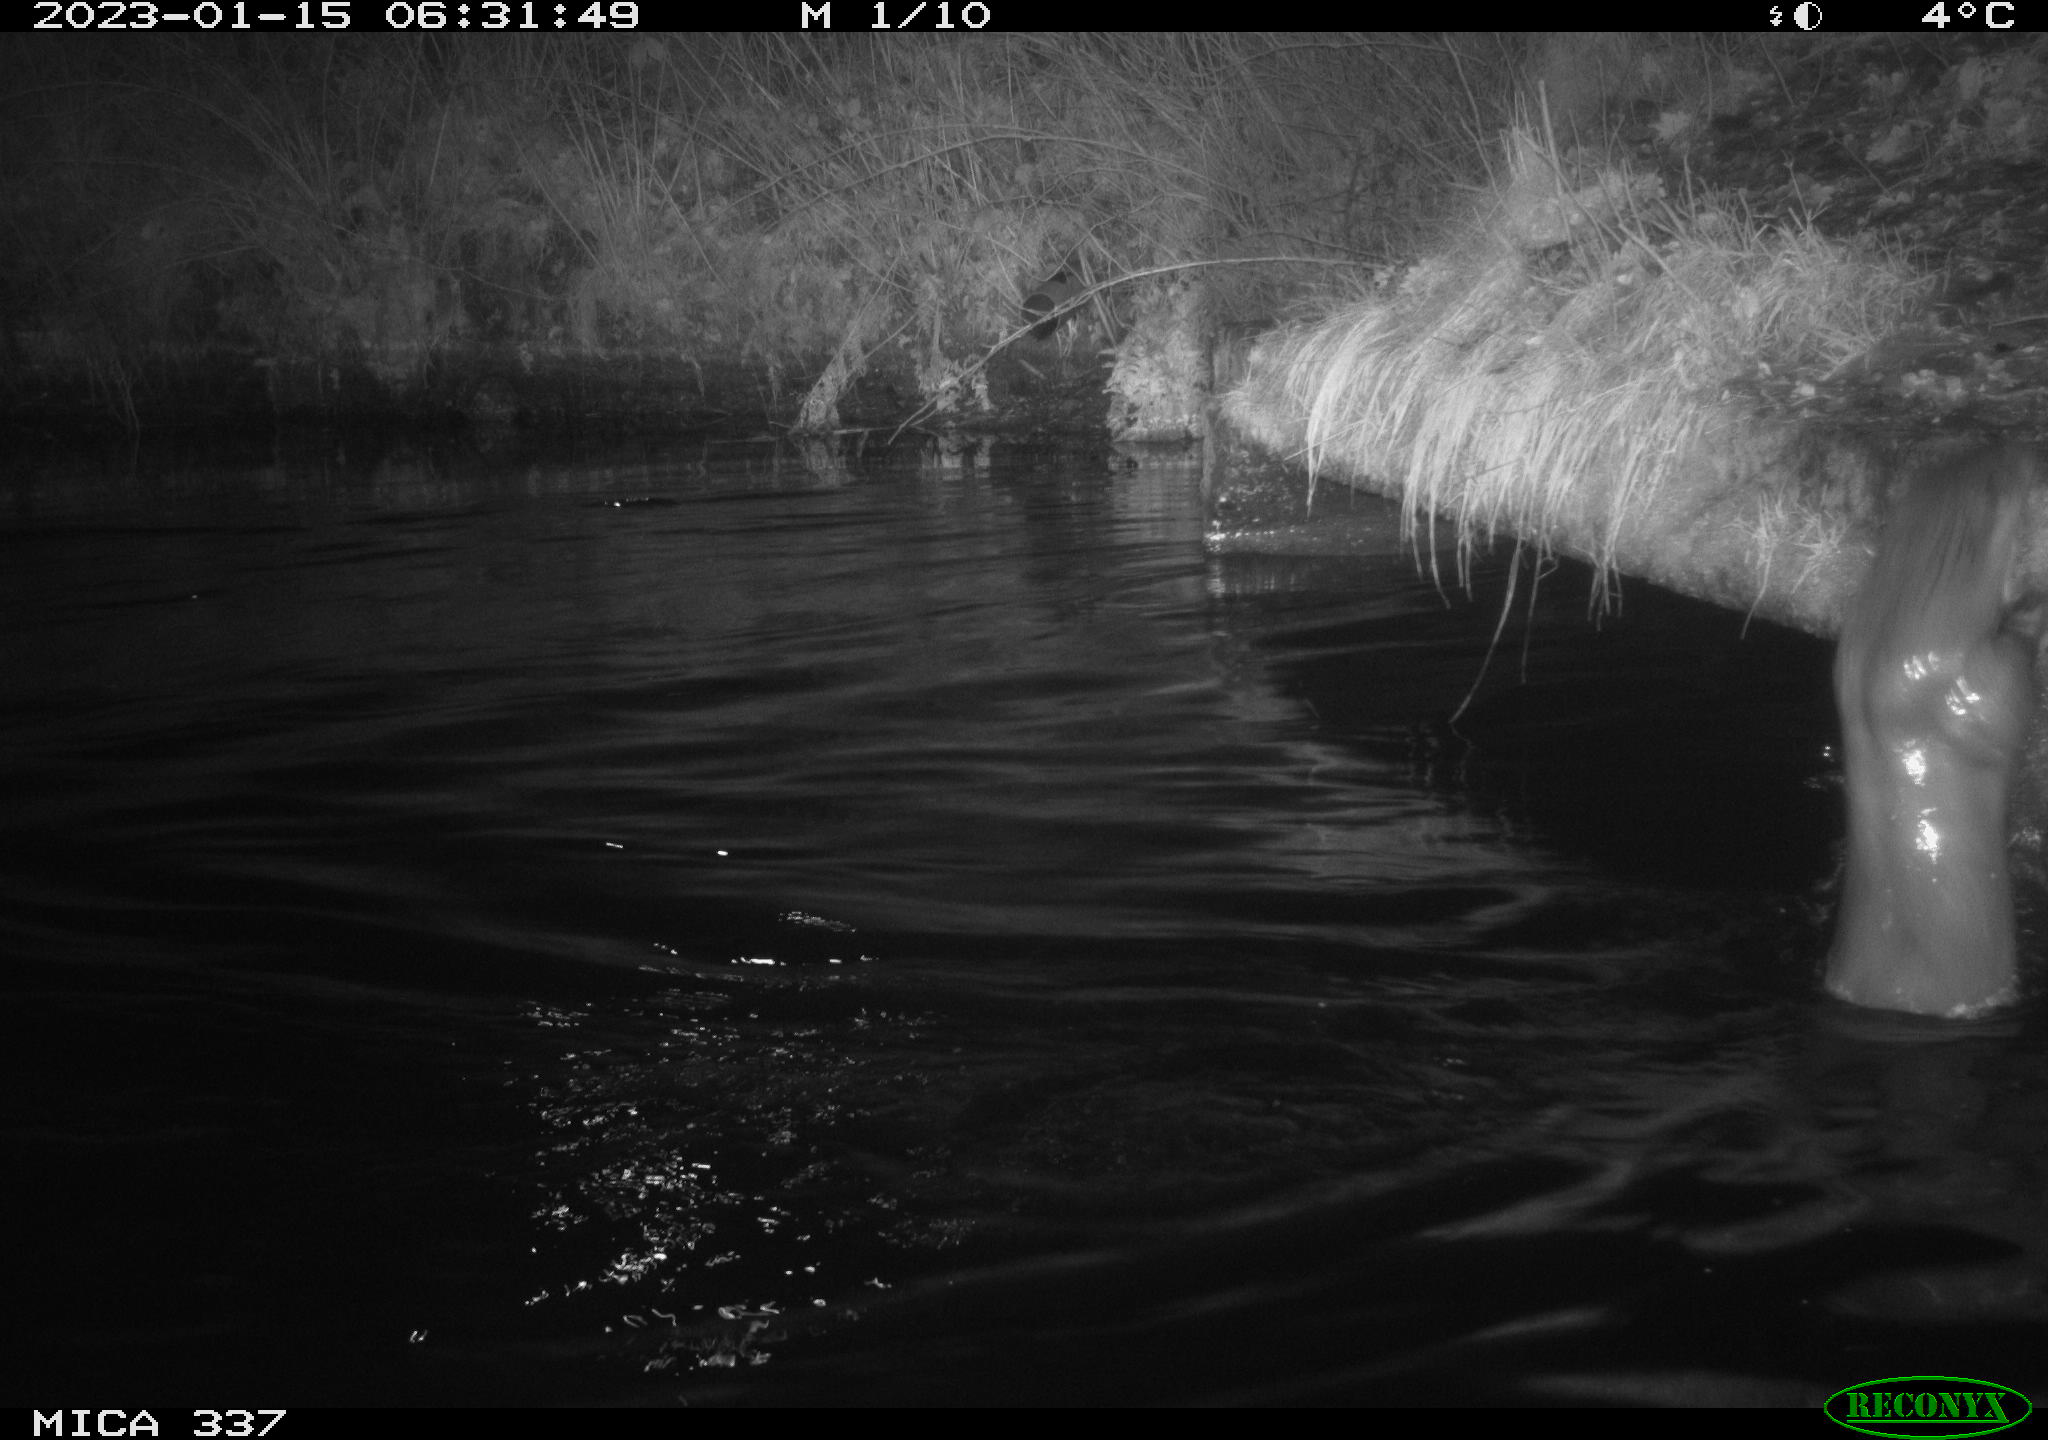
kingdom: Animalia
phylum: Chordata
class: Mammalia
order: Carnivora
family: Mustelidae
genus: Lutra
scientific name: Lutra lutra
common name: European otter
